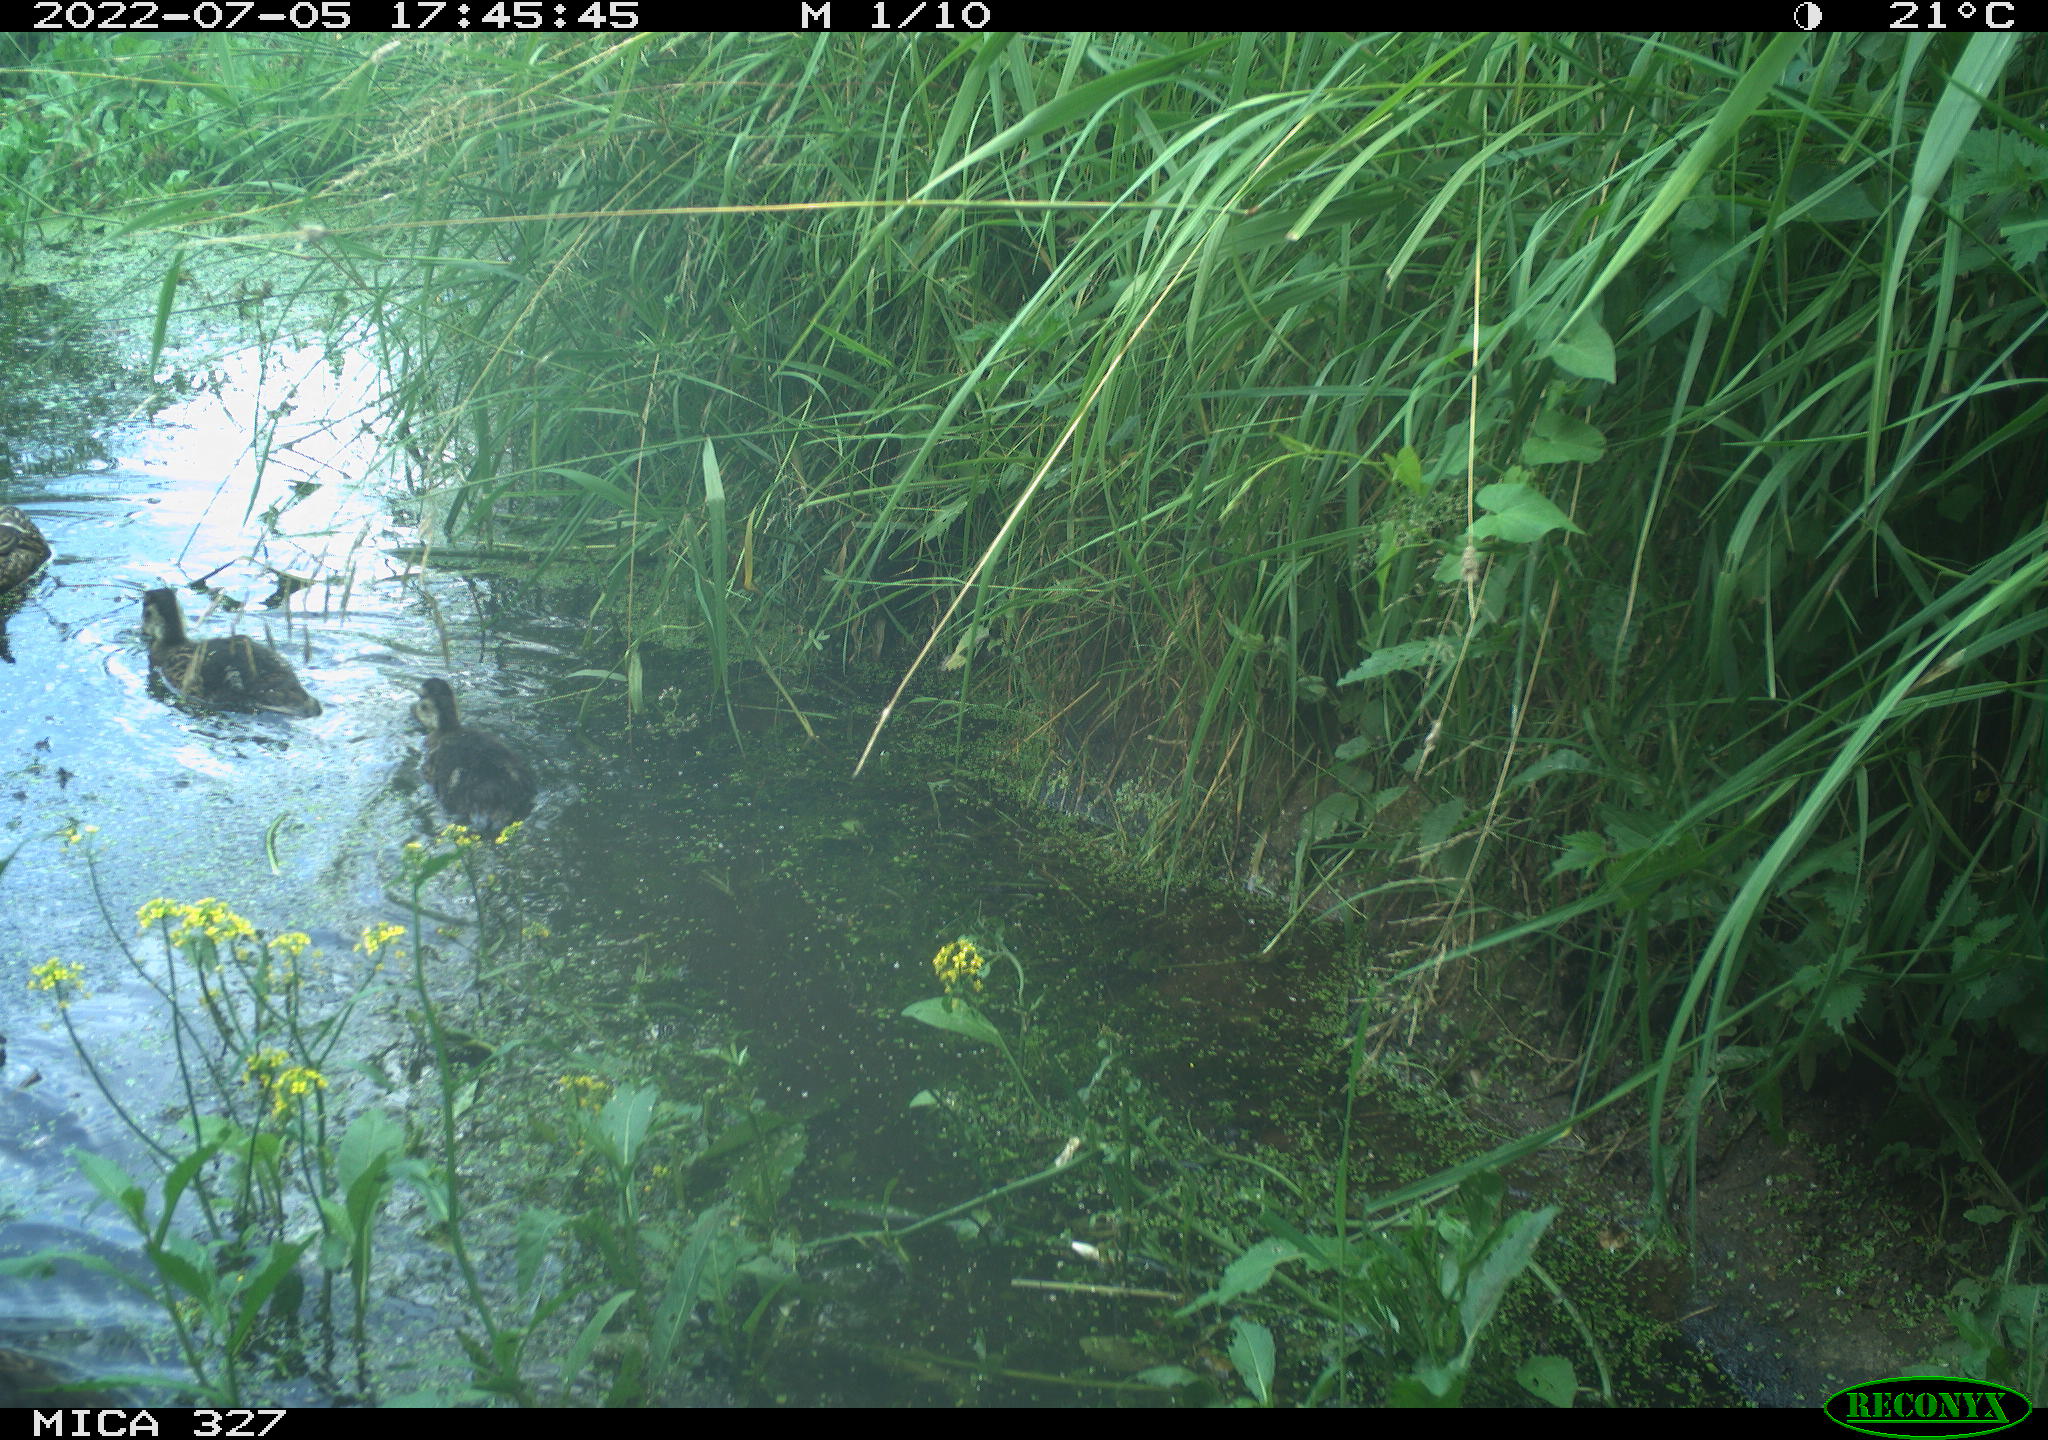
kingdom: Animalia
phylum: Chordata
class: Aves
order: Anseriformes
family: Anatidae
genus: Anas
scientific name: Anas platyrhynchos
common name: Mallard
